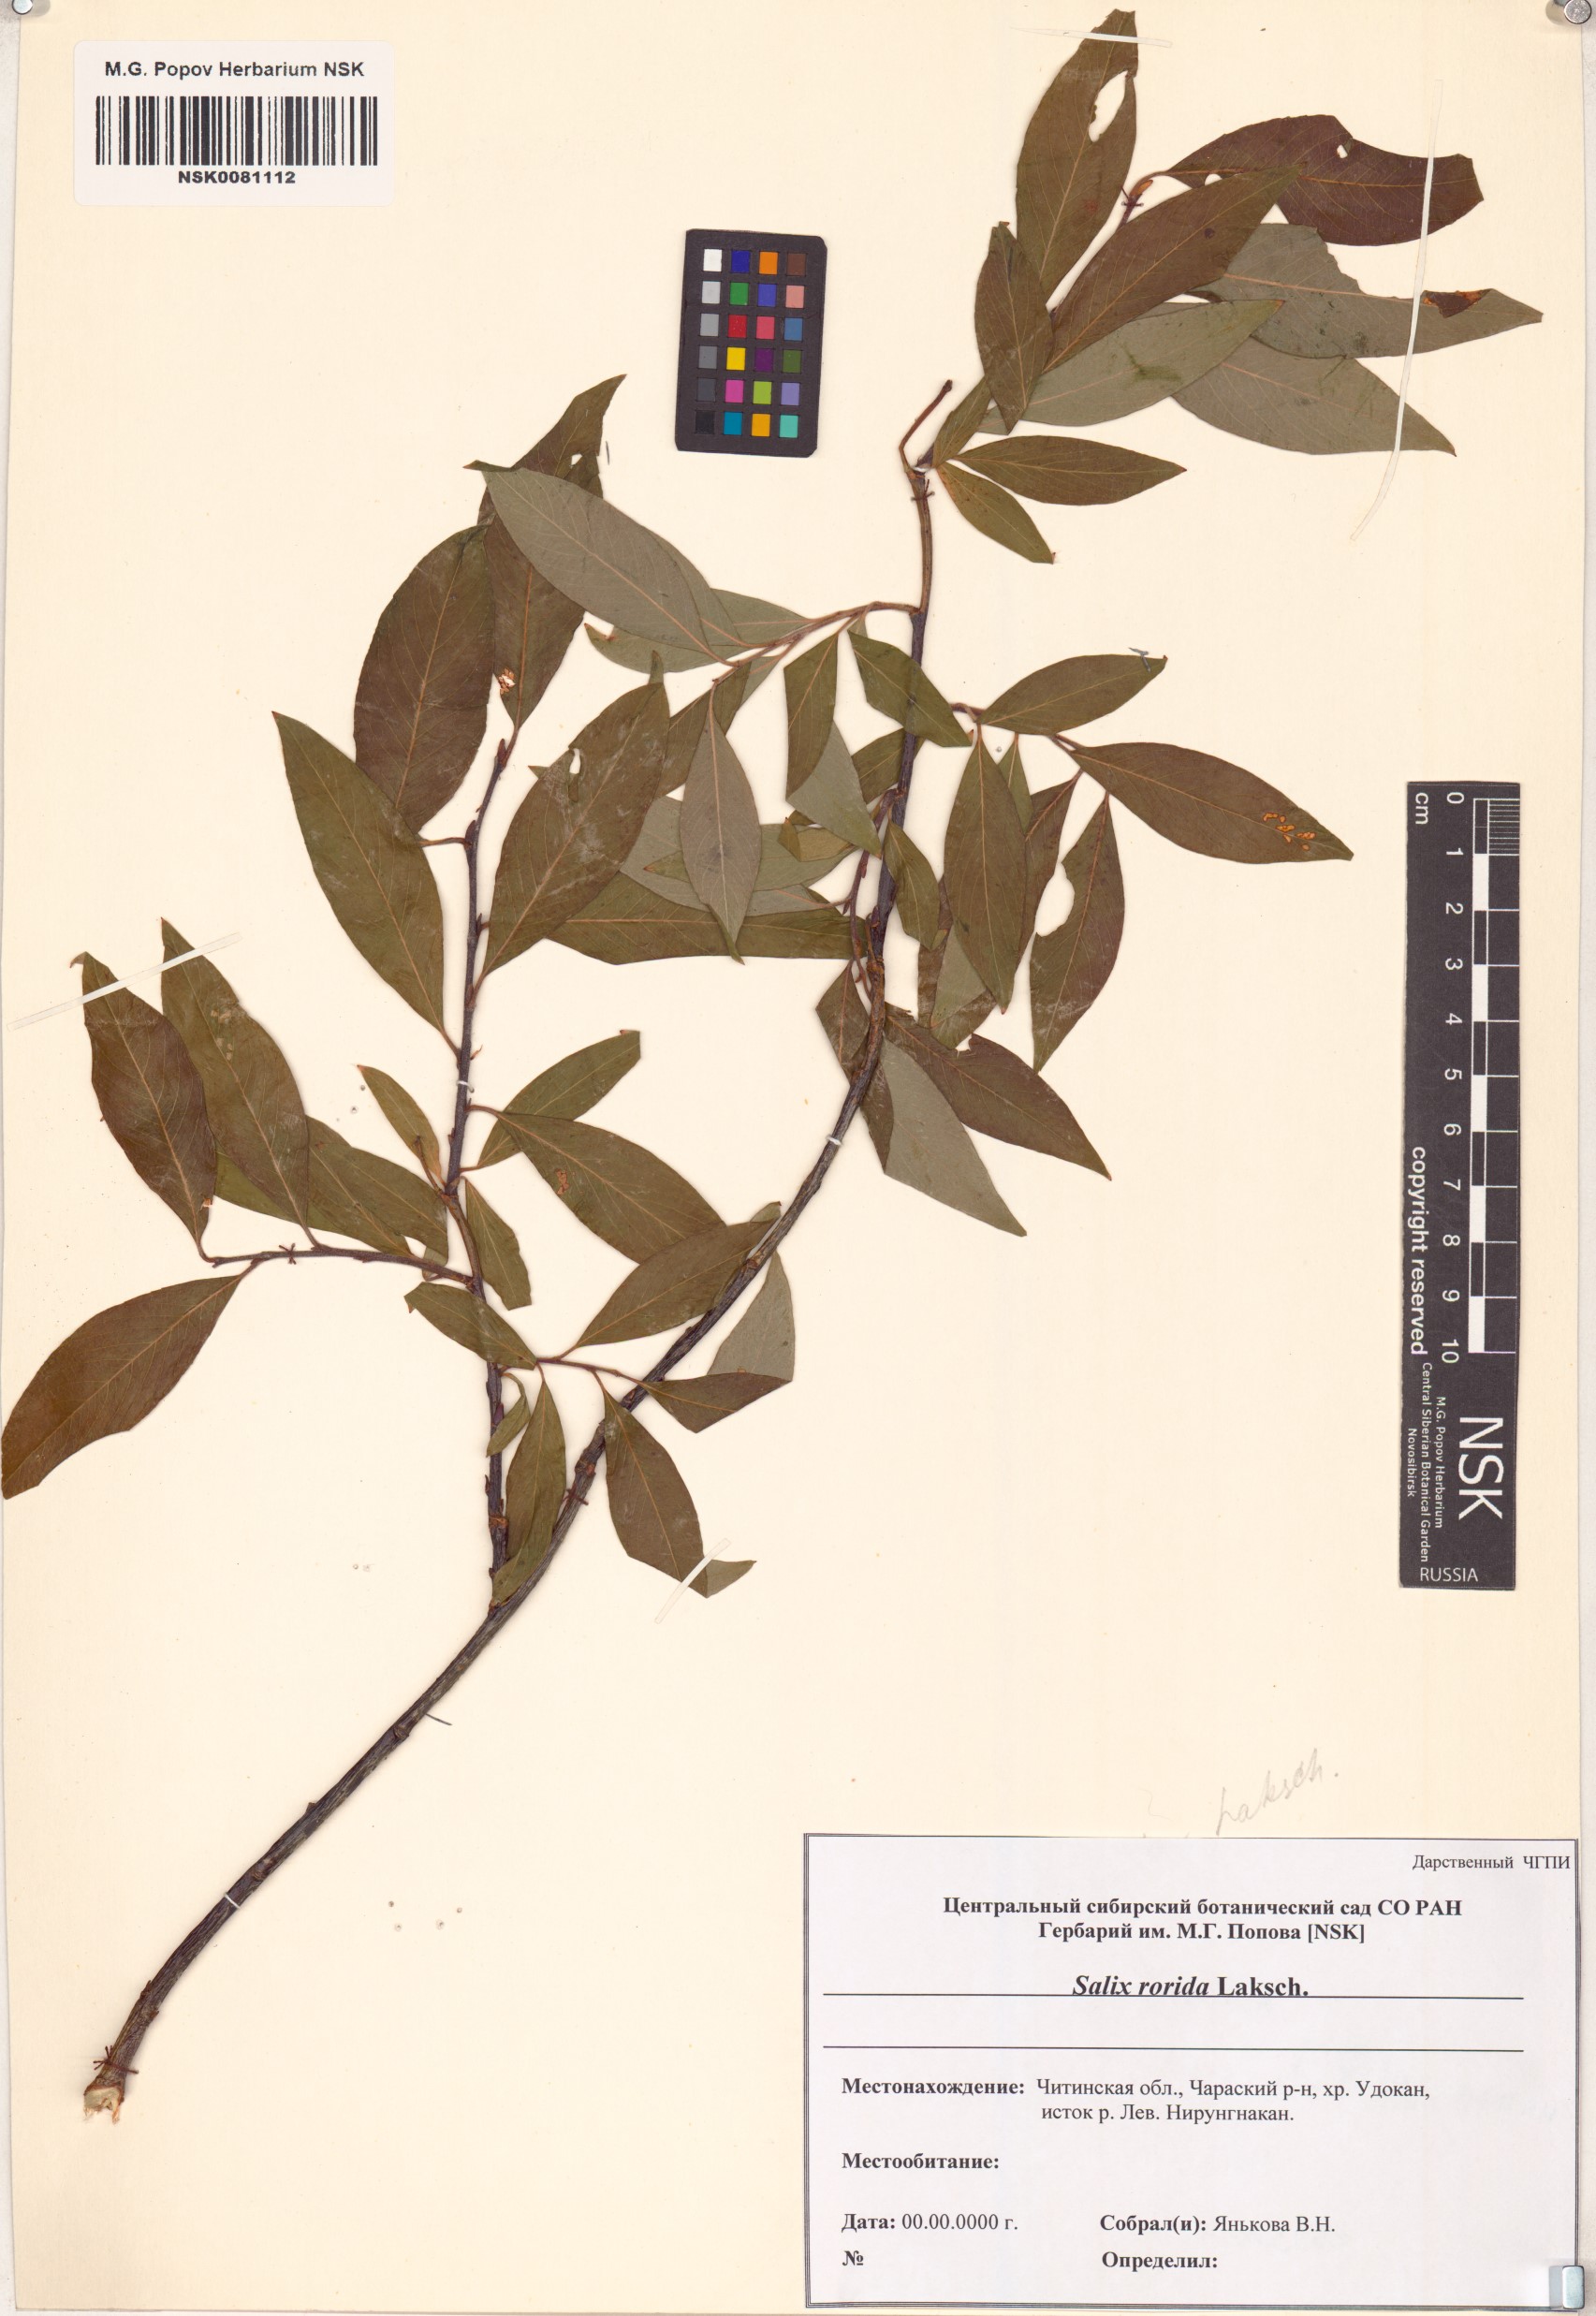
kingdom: Plantae
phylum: Tracheophyta
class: Magnoliopsida
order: Malpighiales
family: Salicaceae
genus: Salix
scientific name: Salix rorida
